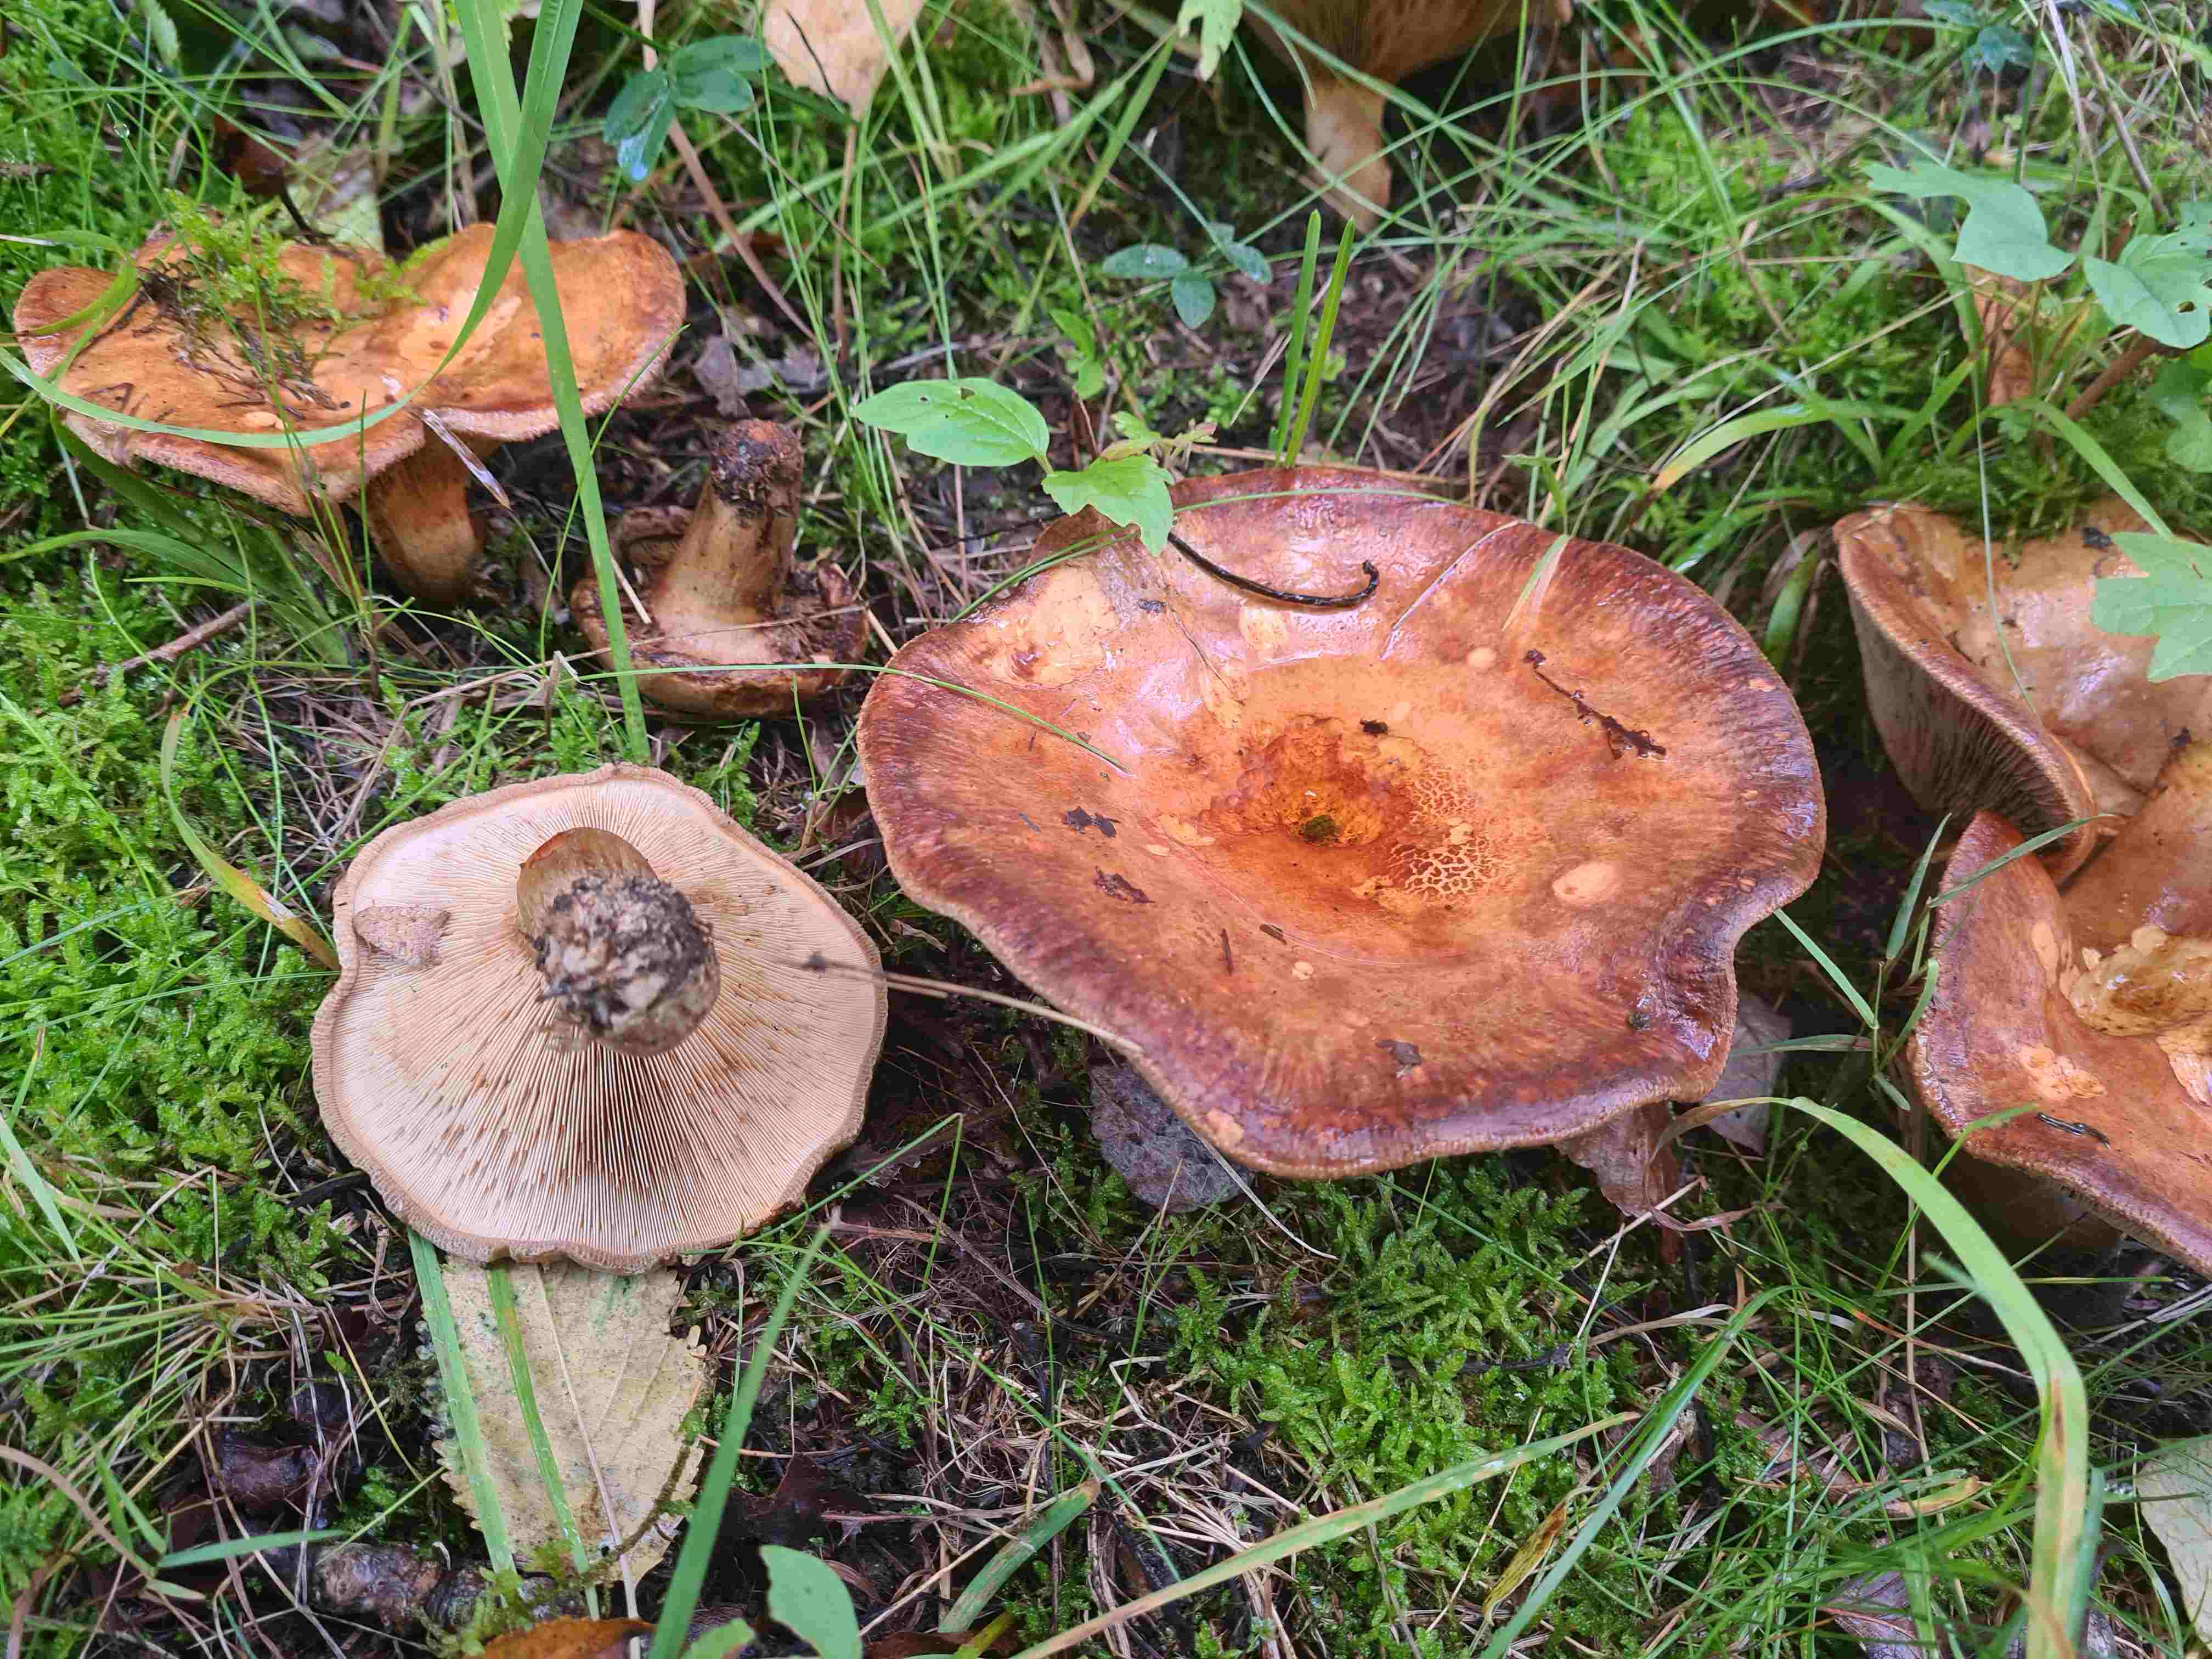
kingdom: Fungi
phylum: Basidiomycota
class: Agaricomycetes
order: Boletales
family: Paxillaceae
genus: Paxillus
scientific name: Paxillus involutus
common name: almindelig netbladhat
